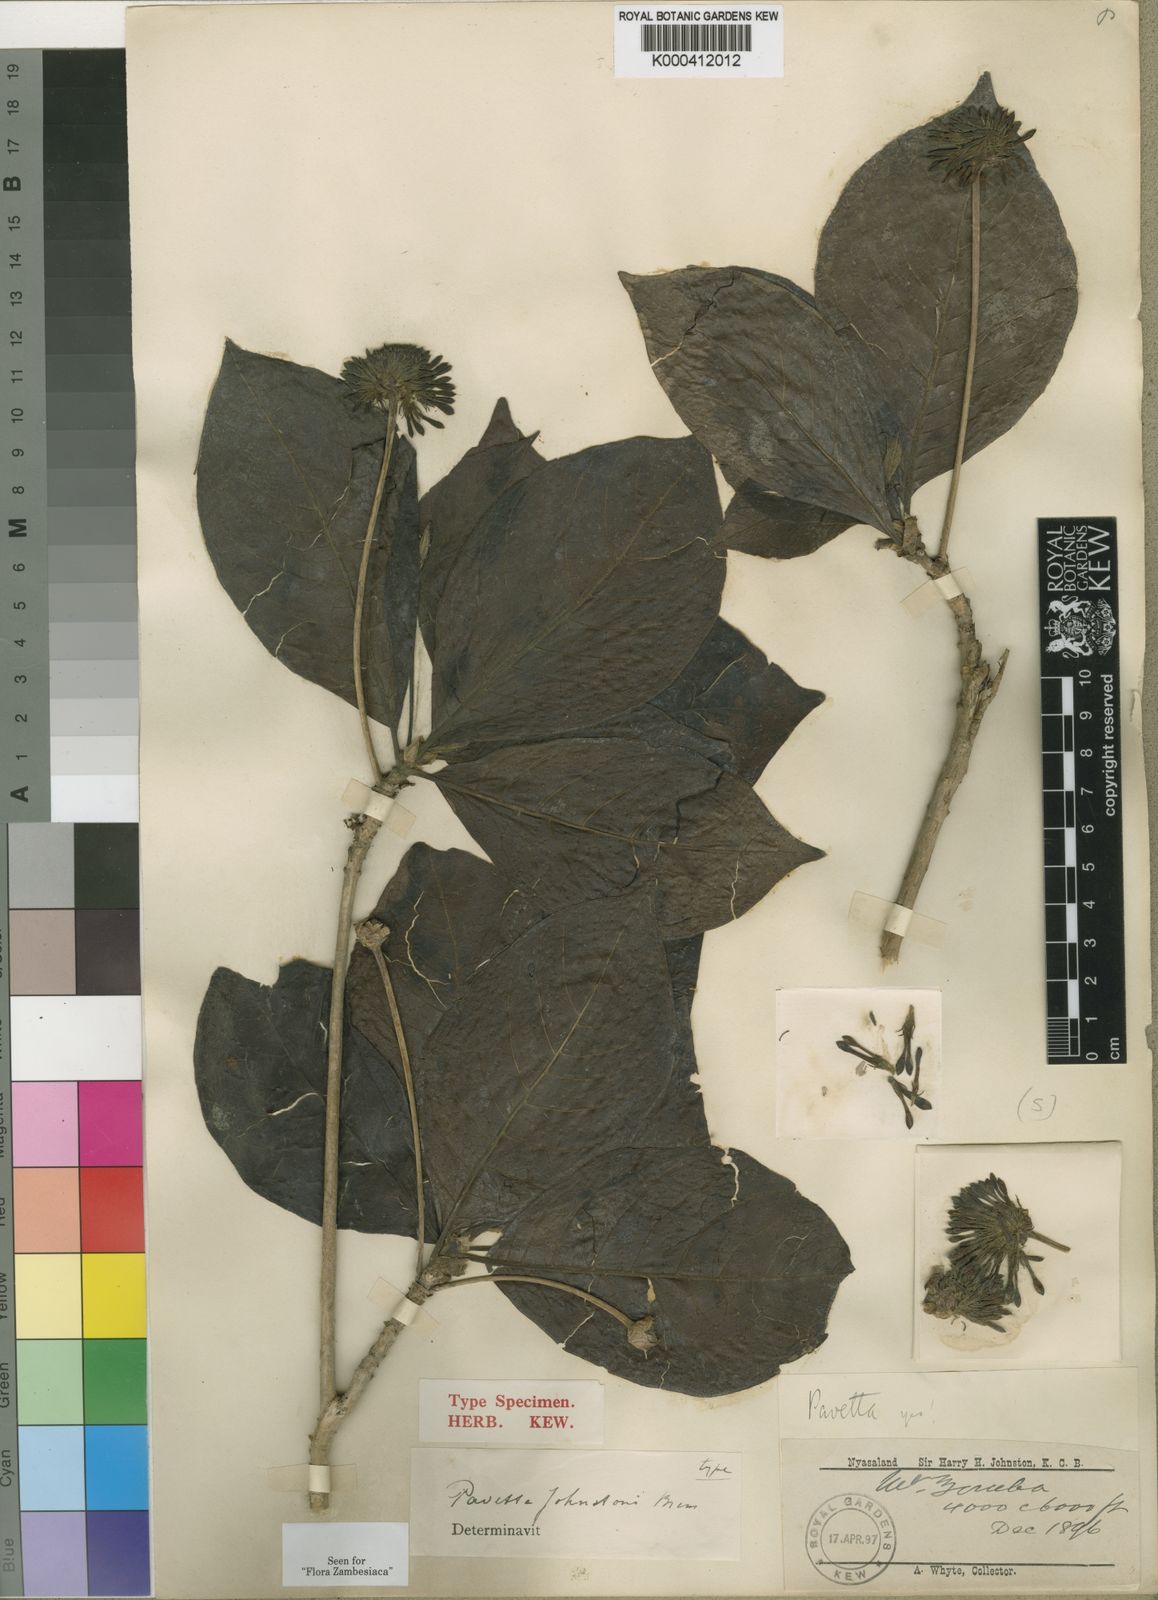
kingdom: Plantae
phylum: Tracheophyta
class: Magnoliopsida
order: Gentianales
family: Rubiaceae
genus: Pavetta
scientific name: Pavetta johnstonii
